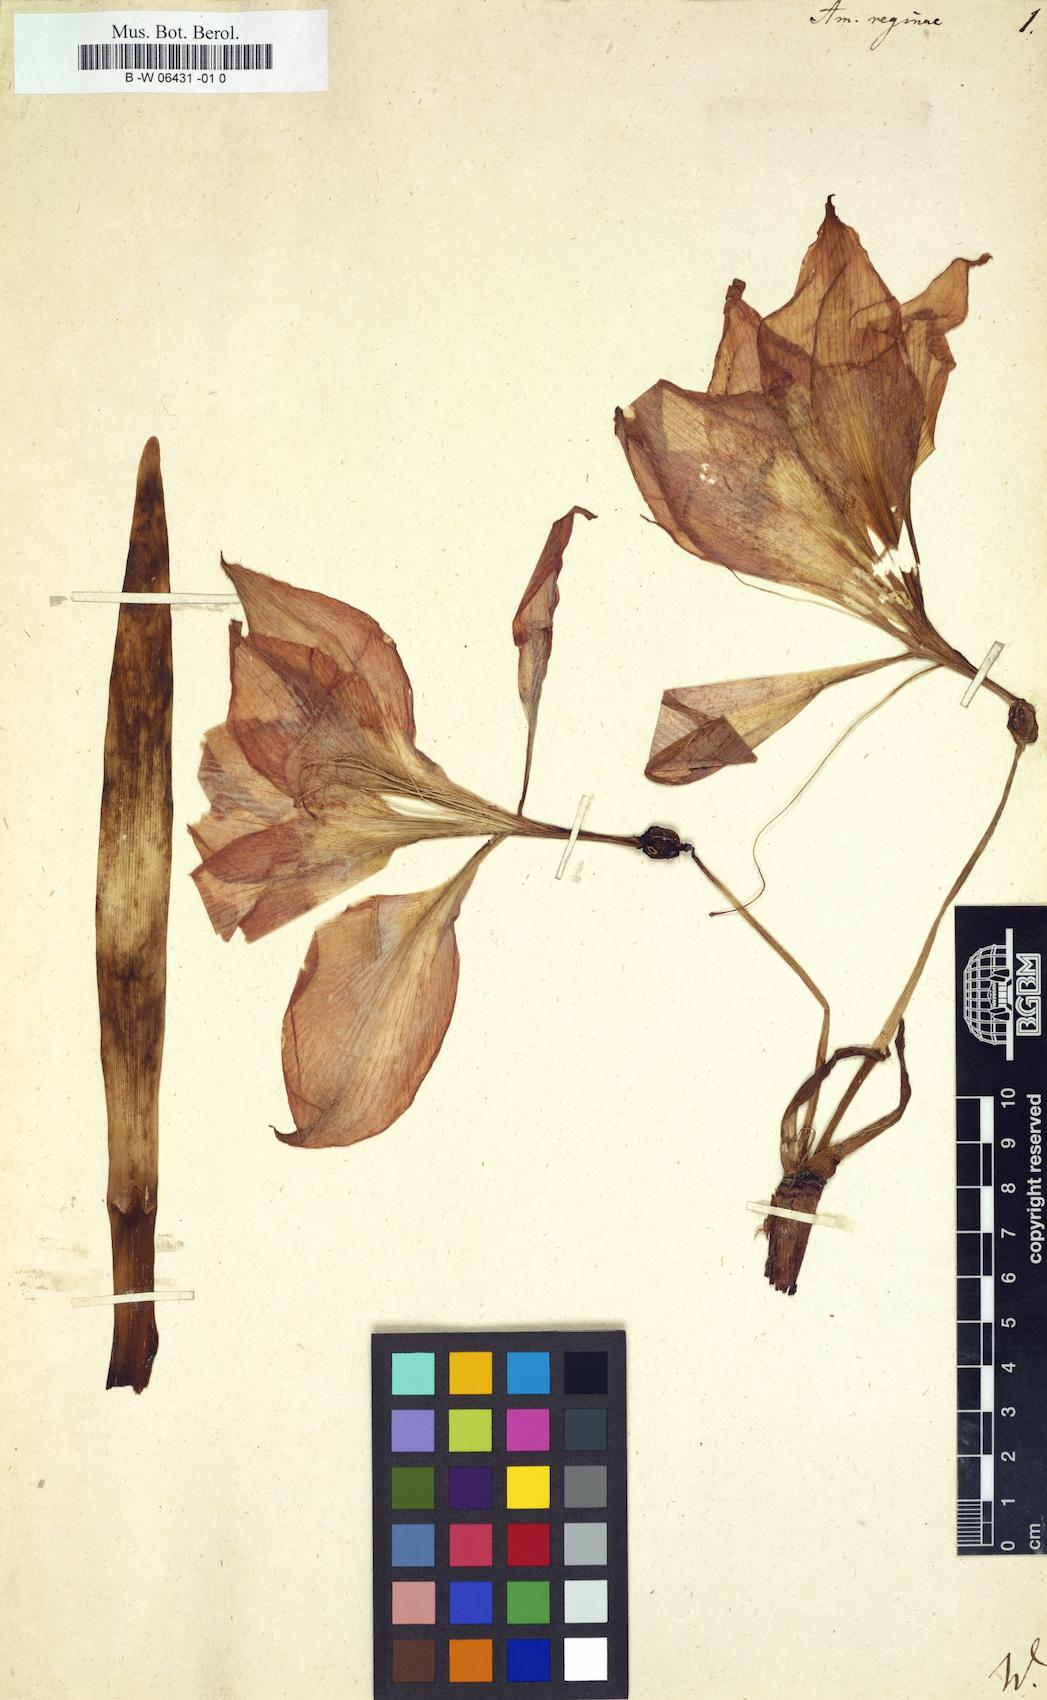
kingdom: Plantae
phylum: Tracheophyta
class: Liliopsida
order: Asparagales
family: Amaryllidaceae
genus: Hippeastrum
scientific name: Hippeastrum reginae
